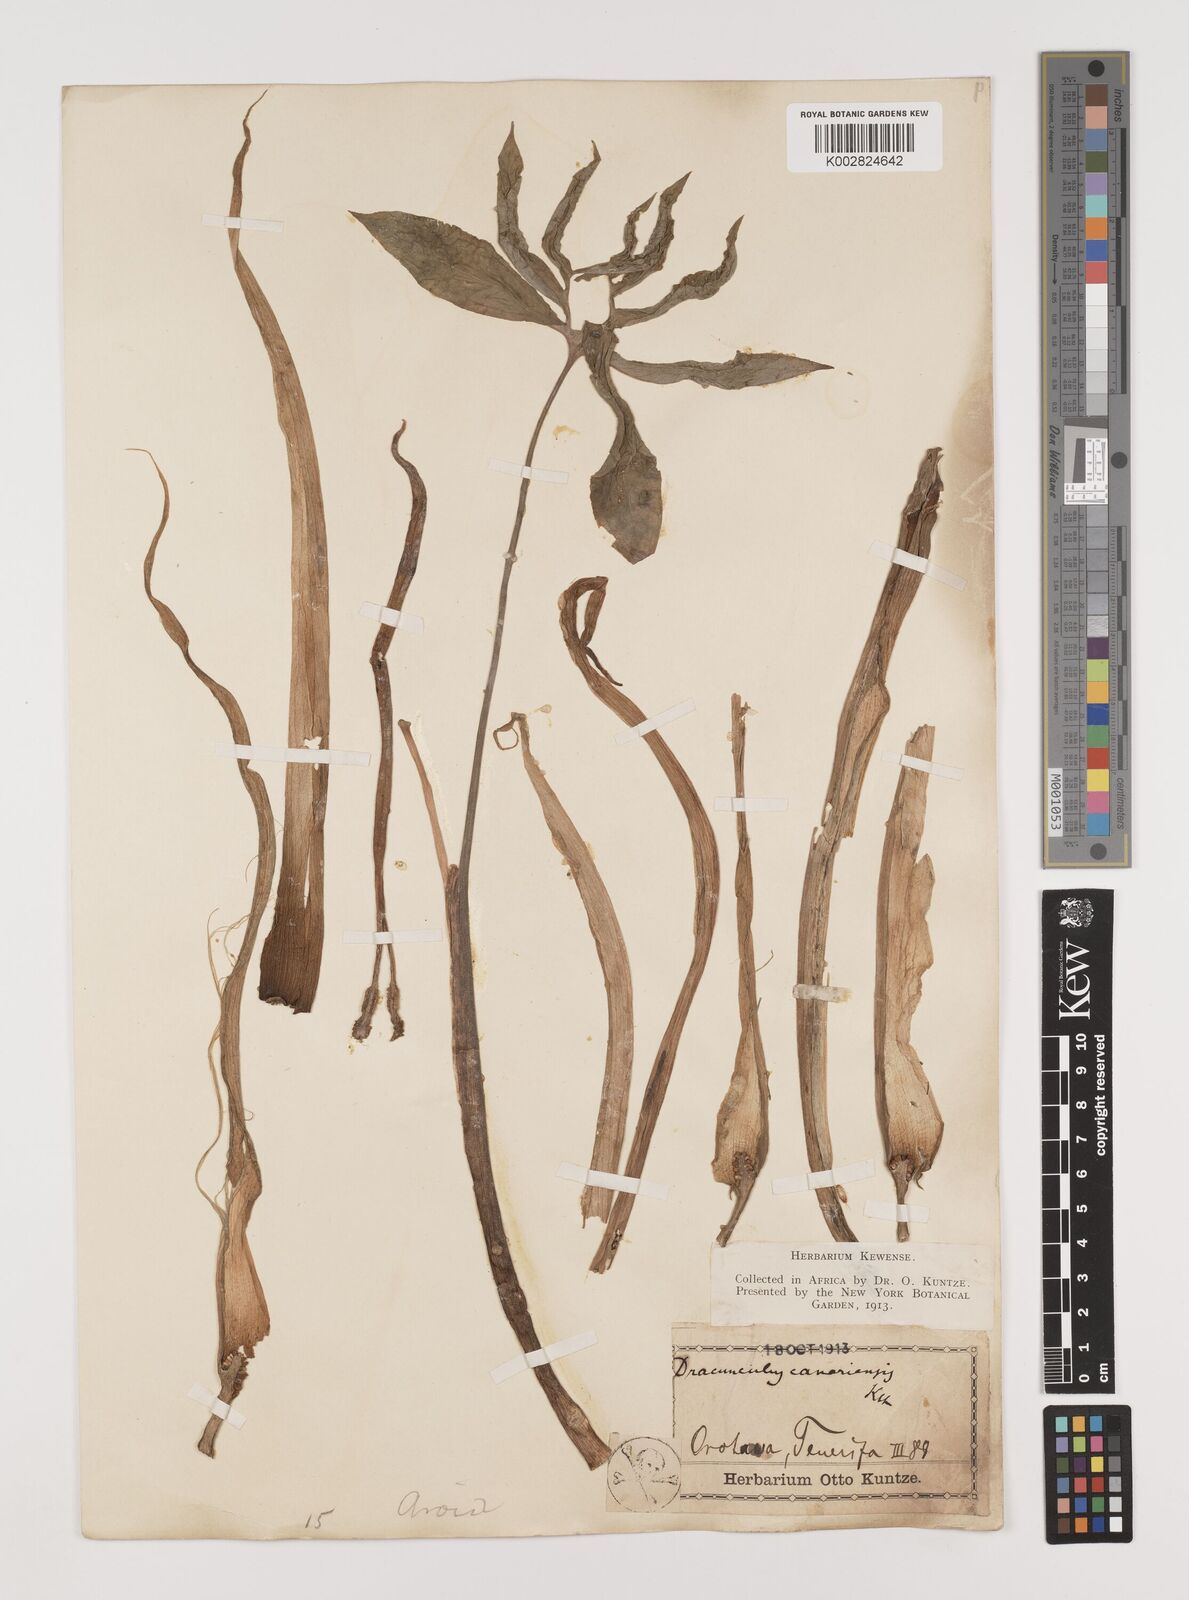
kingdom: Plantae
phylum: Tracheophyta
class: Liliopsida
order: Alismatales
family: Araceae
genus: Dracunculus
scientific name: Dracunculus canariensis
